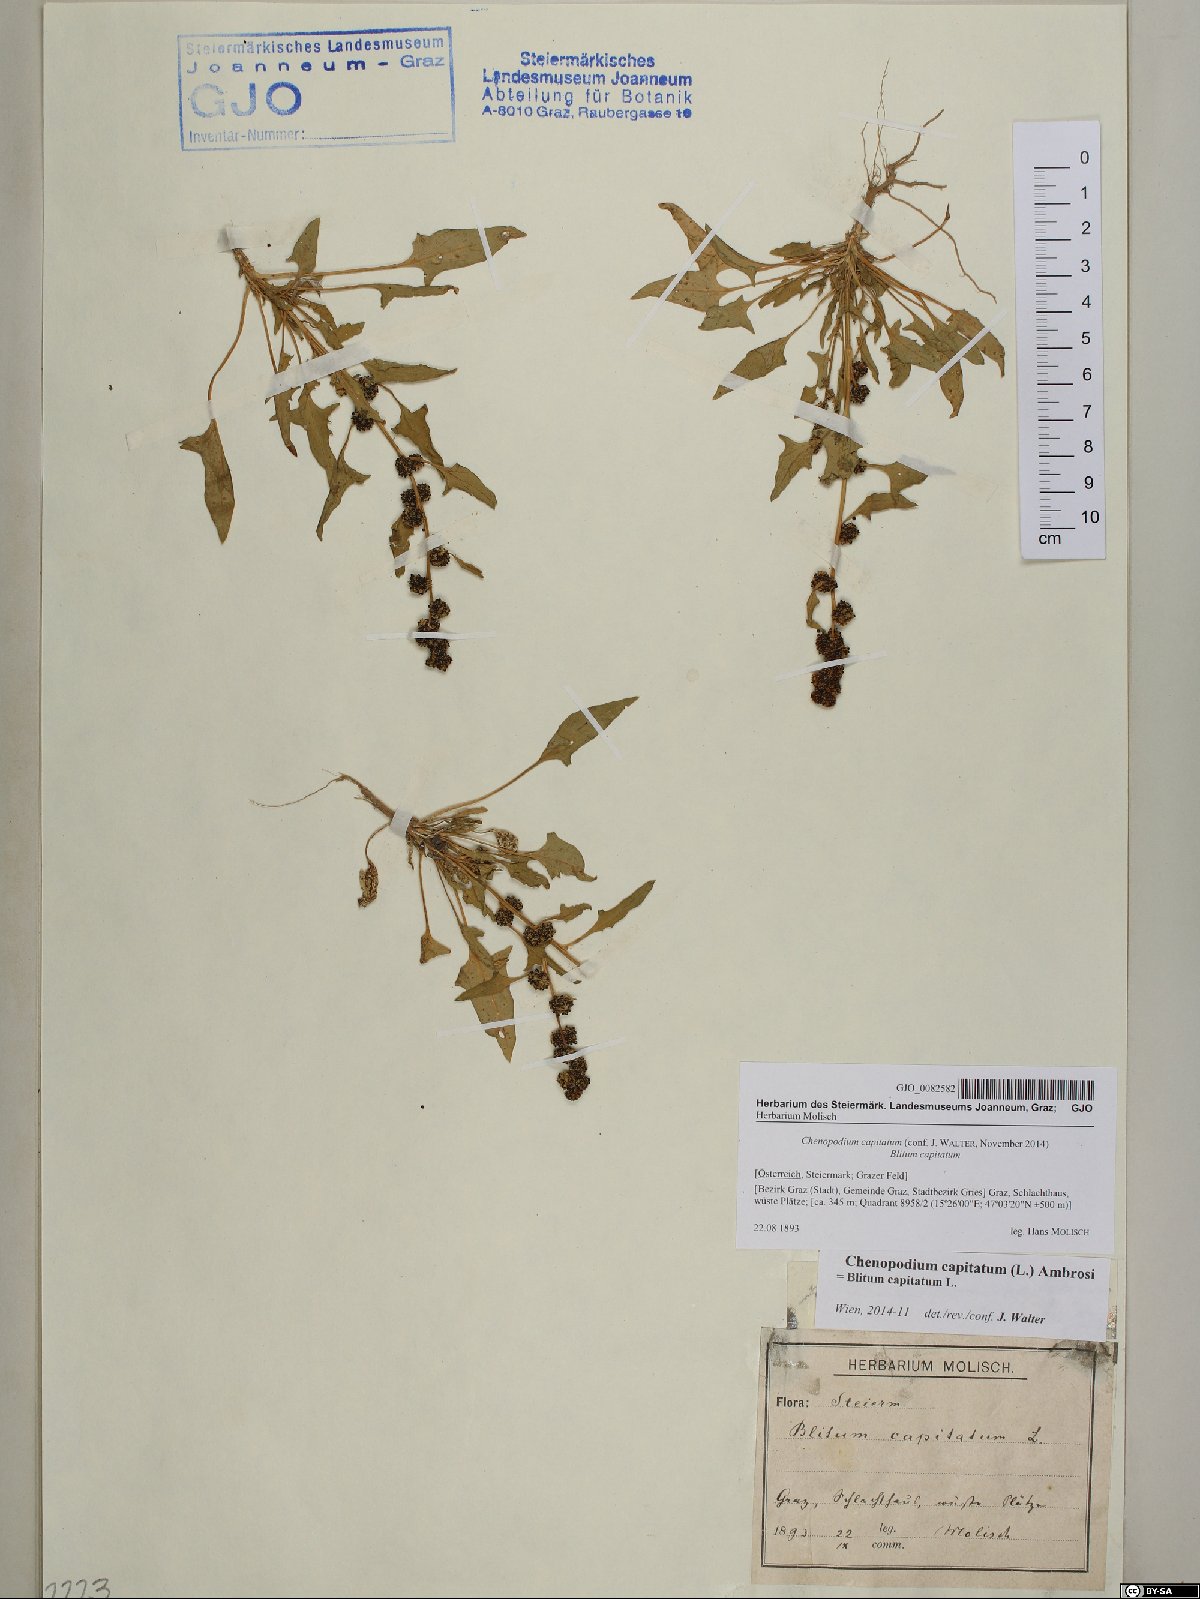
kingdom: Plantae
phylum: Tracheophyta
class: Magnoliopsida
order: Caryophyllales
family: Amaranthaceae
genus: Blitum
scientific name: Blitum capitatum
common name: Strawberry-blight
